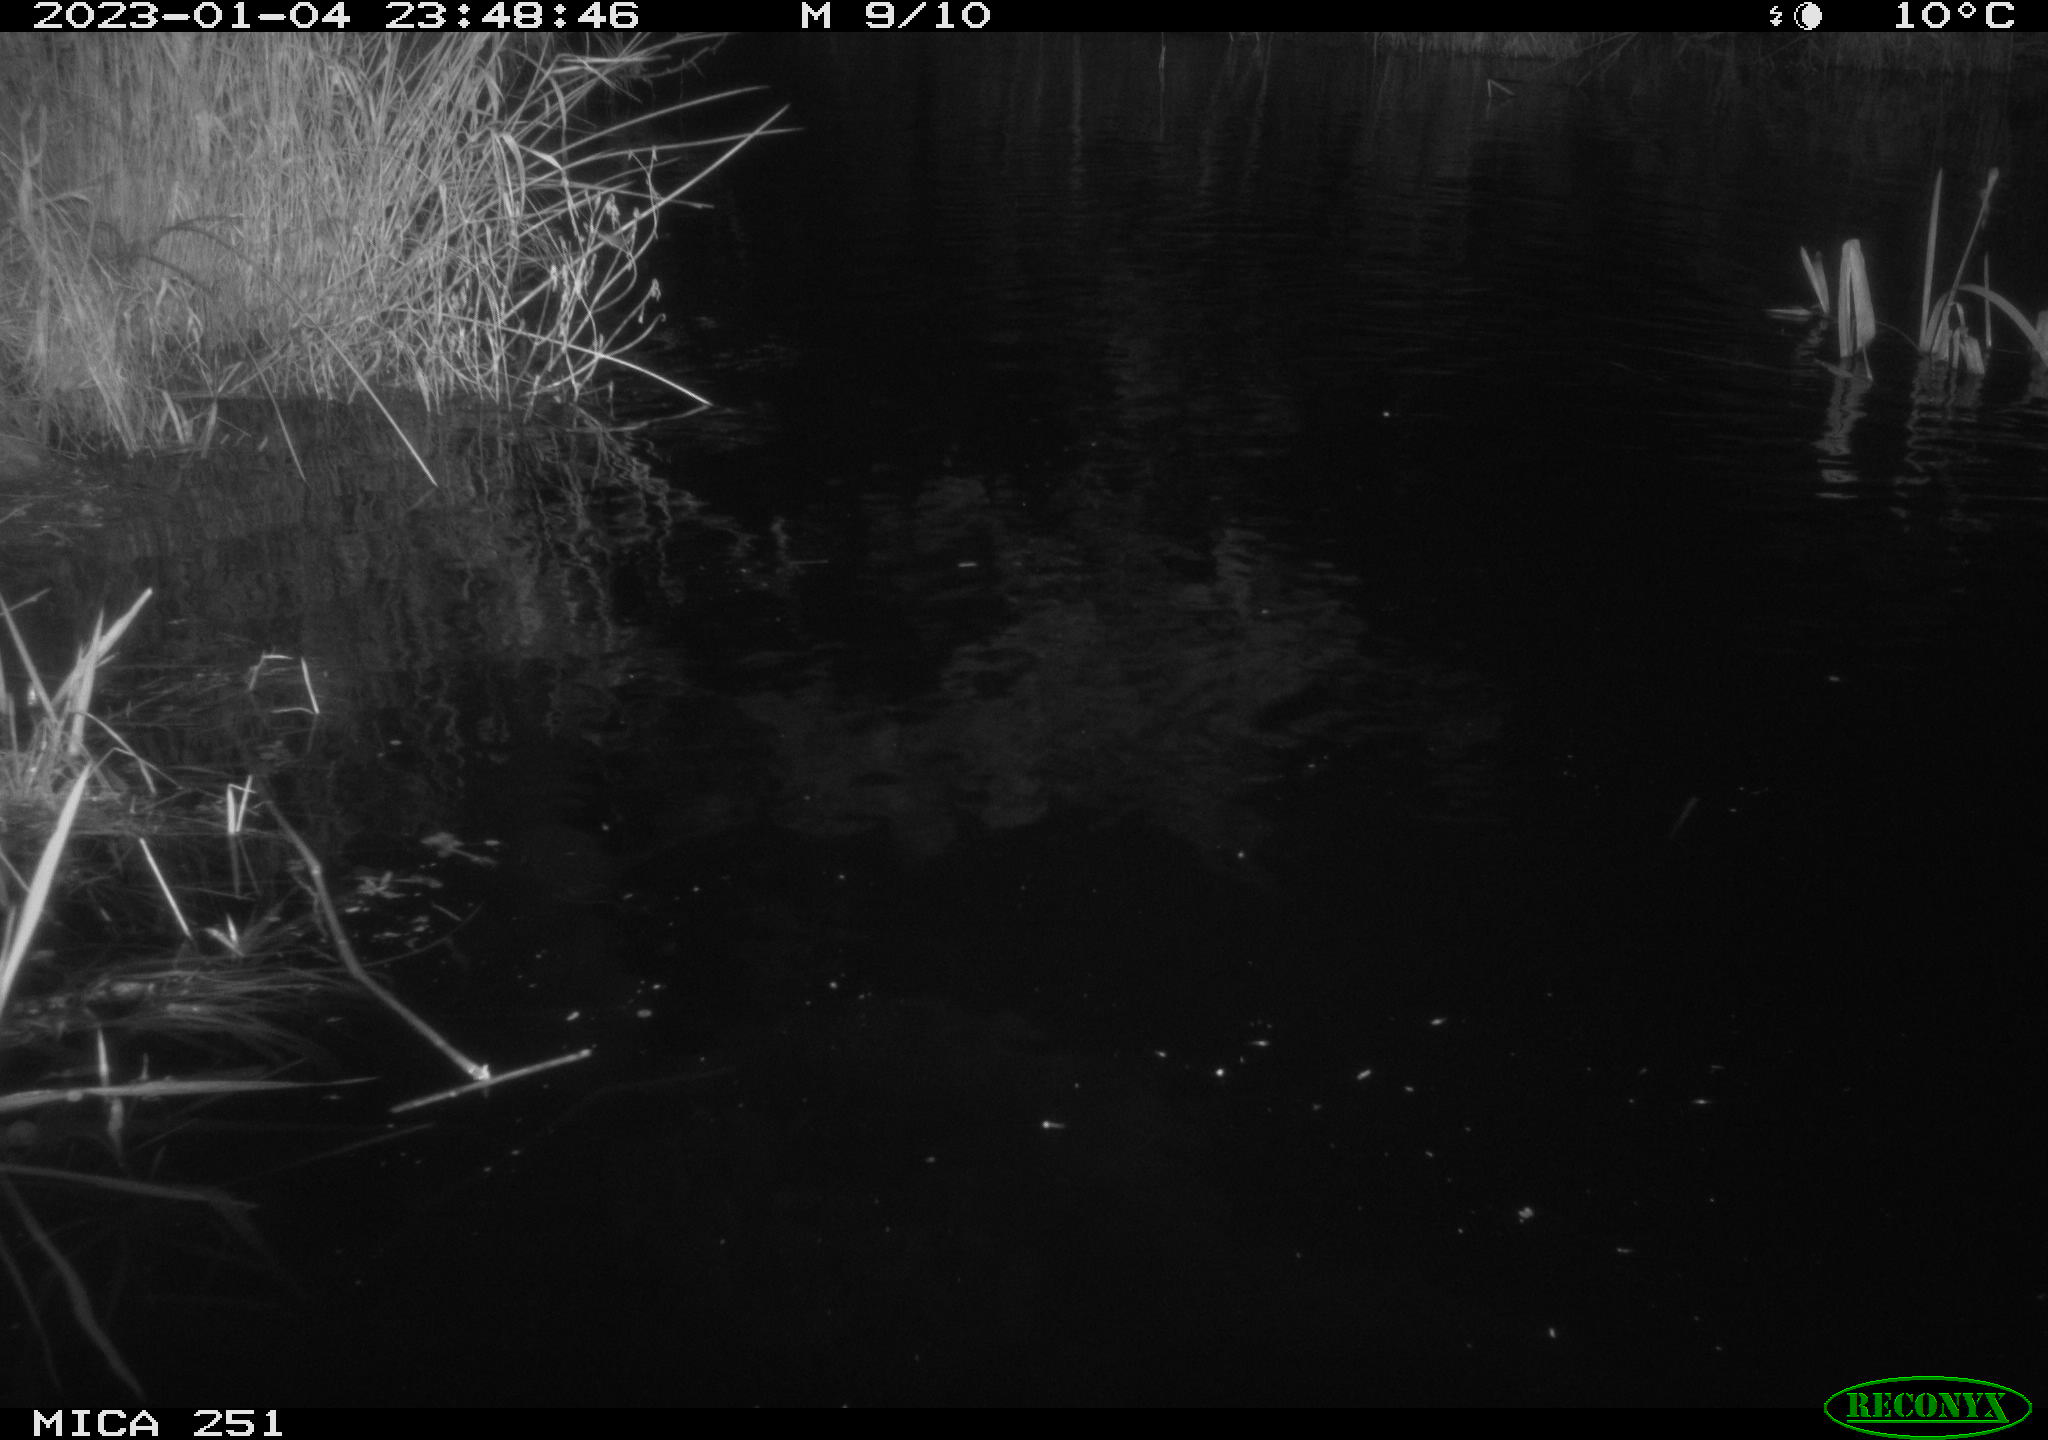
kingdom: Animalia
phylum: Chordata
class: Aves
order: Anseriformes
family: Anatidae
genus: Anas
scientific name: Anas
